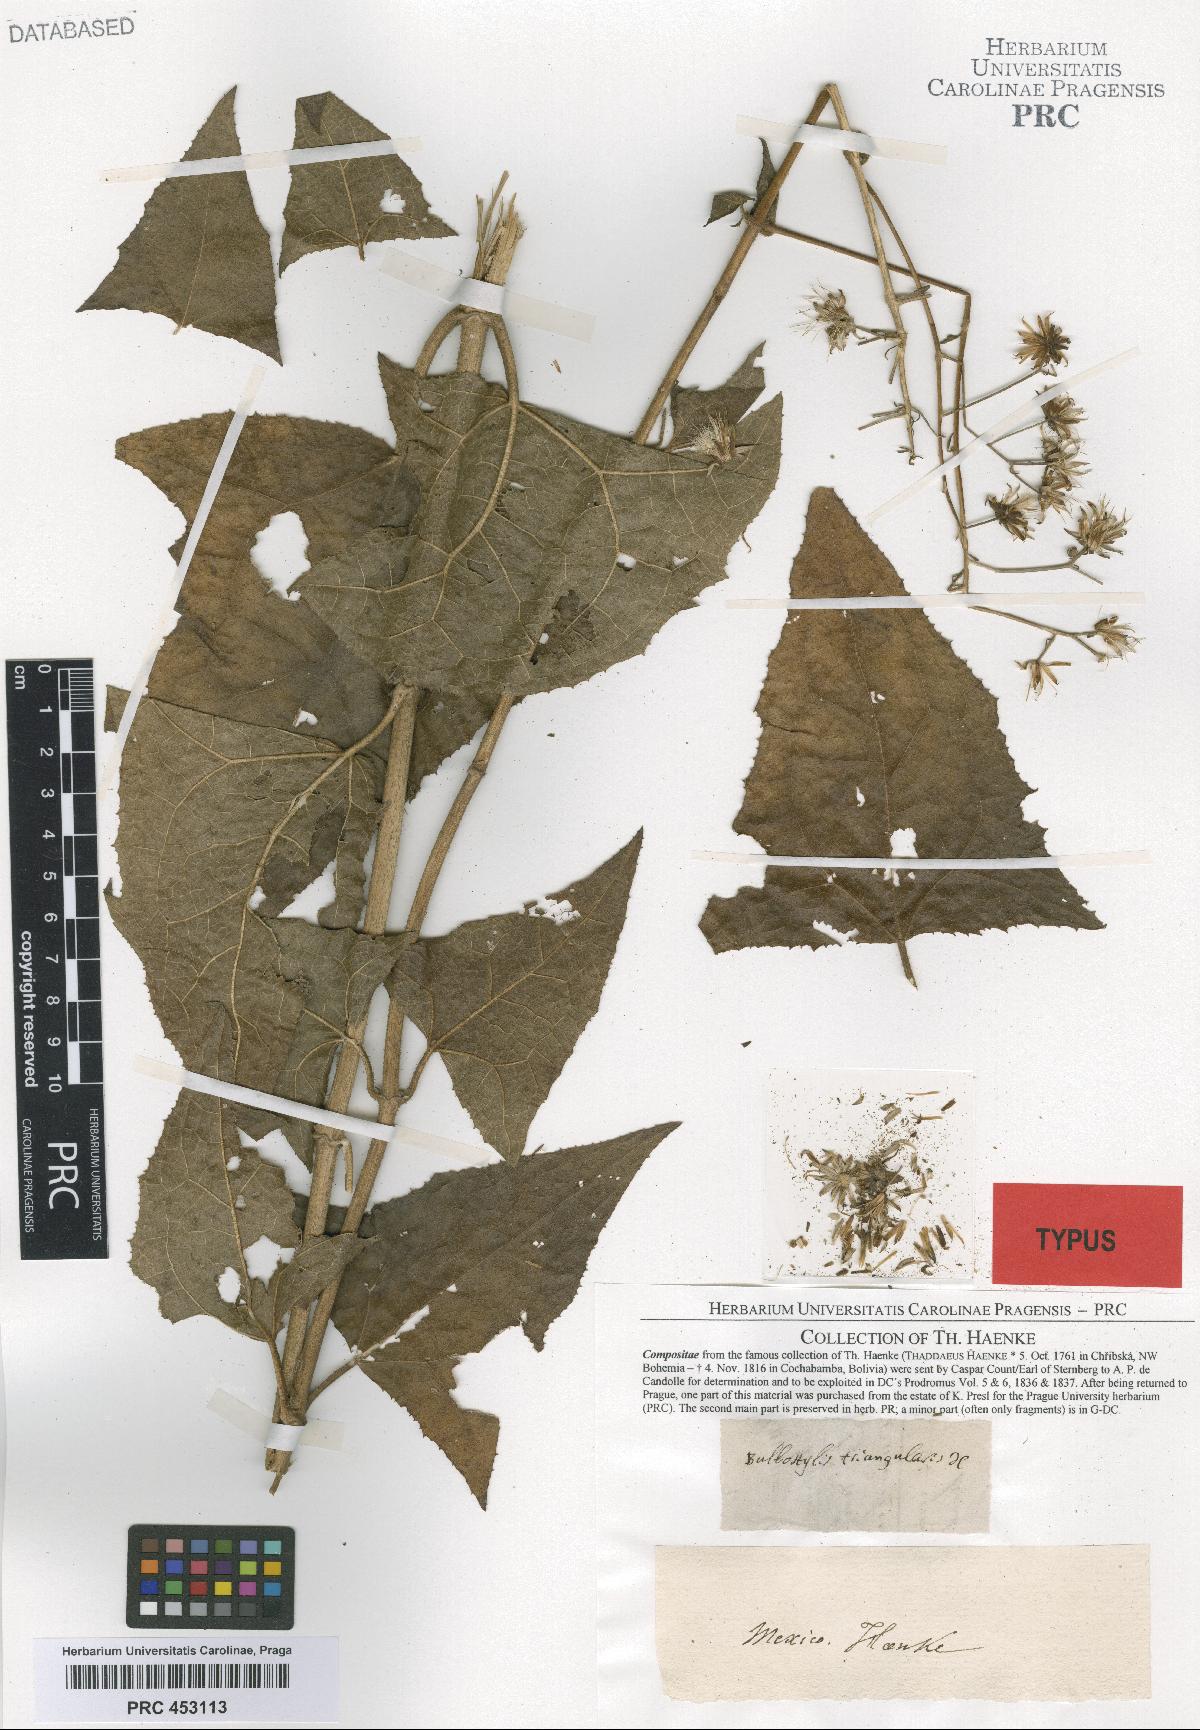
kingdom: Plantae
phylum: Tracheophyta
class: Magnoliopsida
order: Asterales
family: Asteraceae
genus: Eupatoriastrum
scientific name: Eupatoriastrum triangulare
